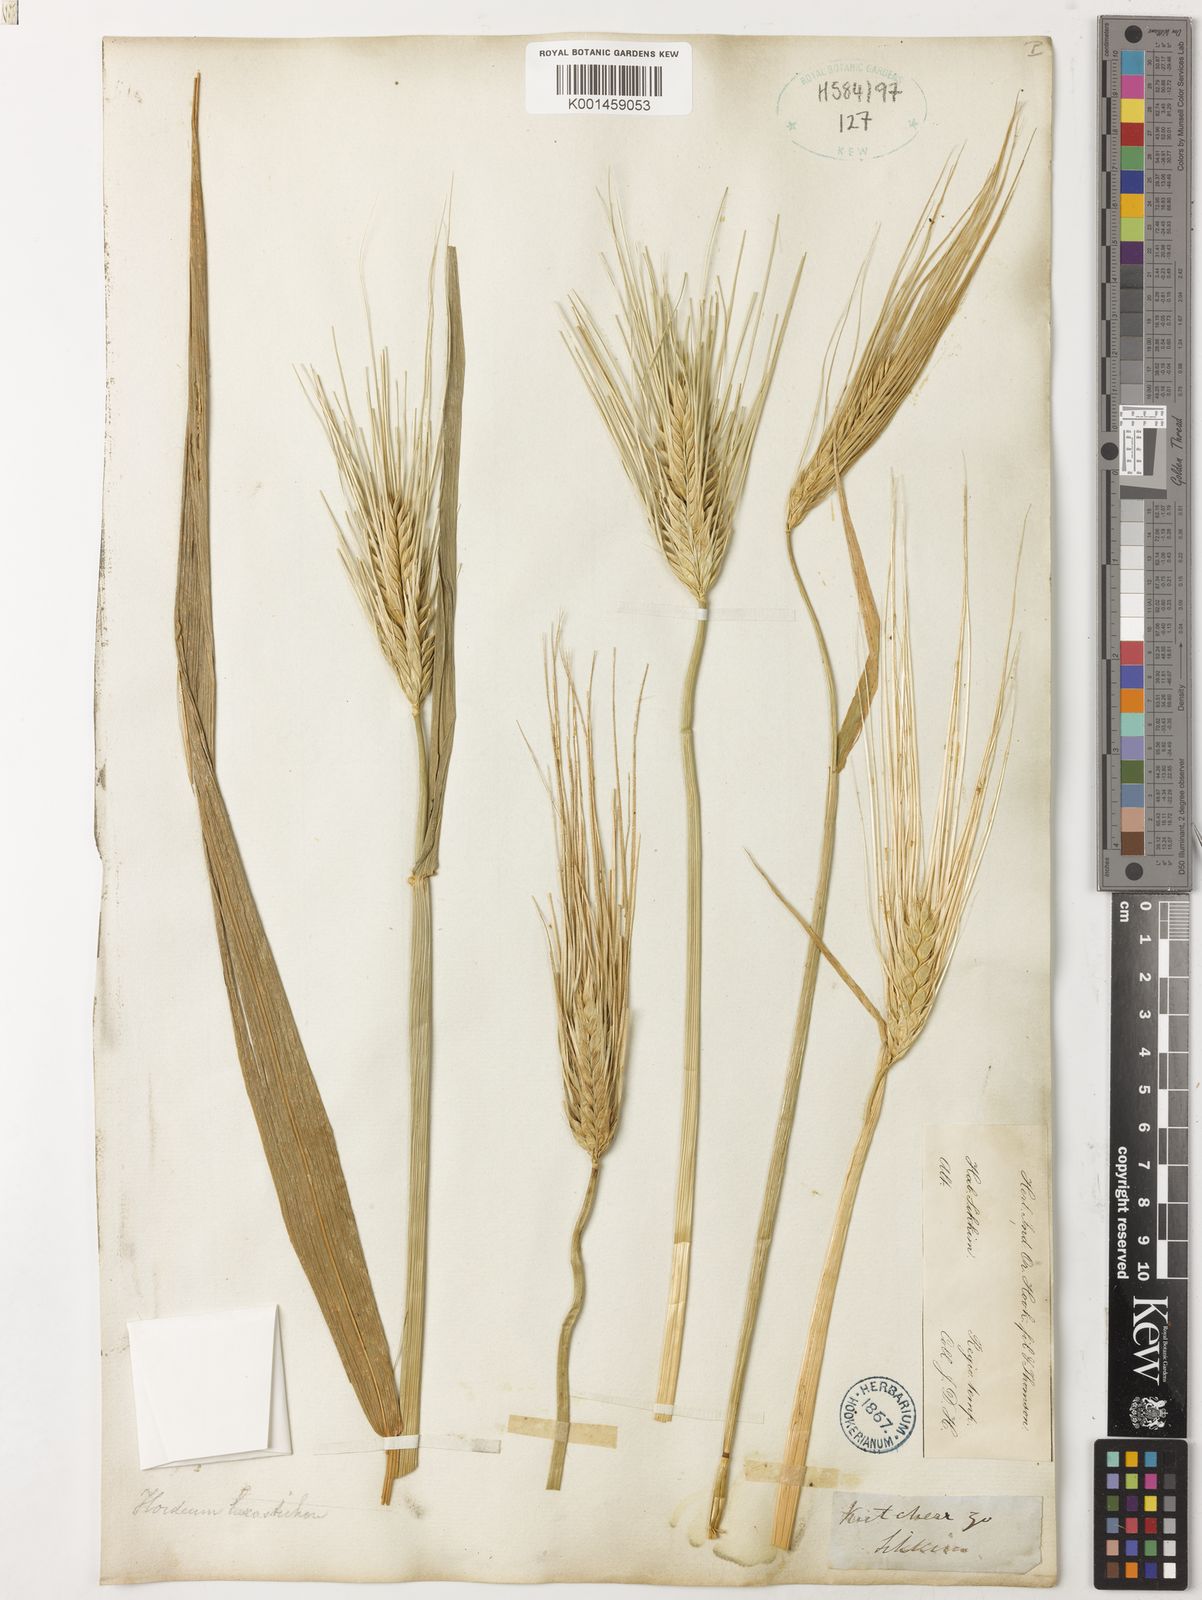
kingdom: Plantae
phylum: Tracheophyta
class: Liliopsida
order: Poales
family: Poaceae
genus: Hordeum
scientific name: Hordeum vulgare
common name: Common barley
